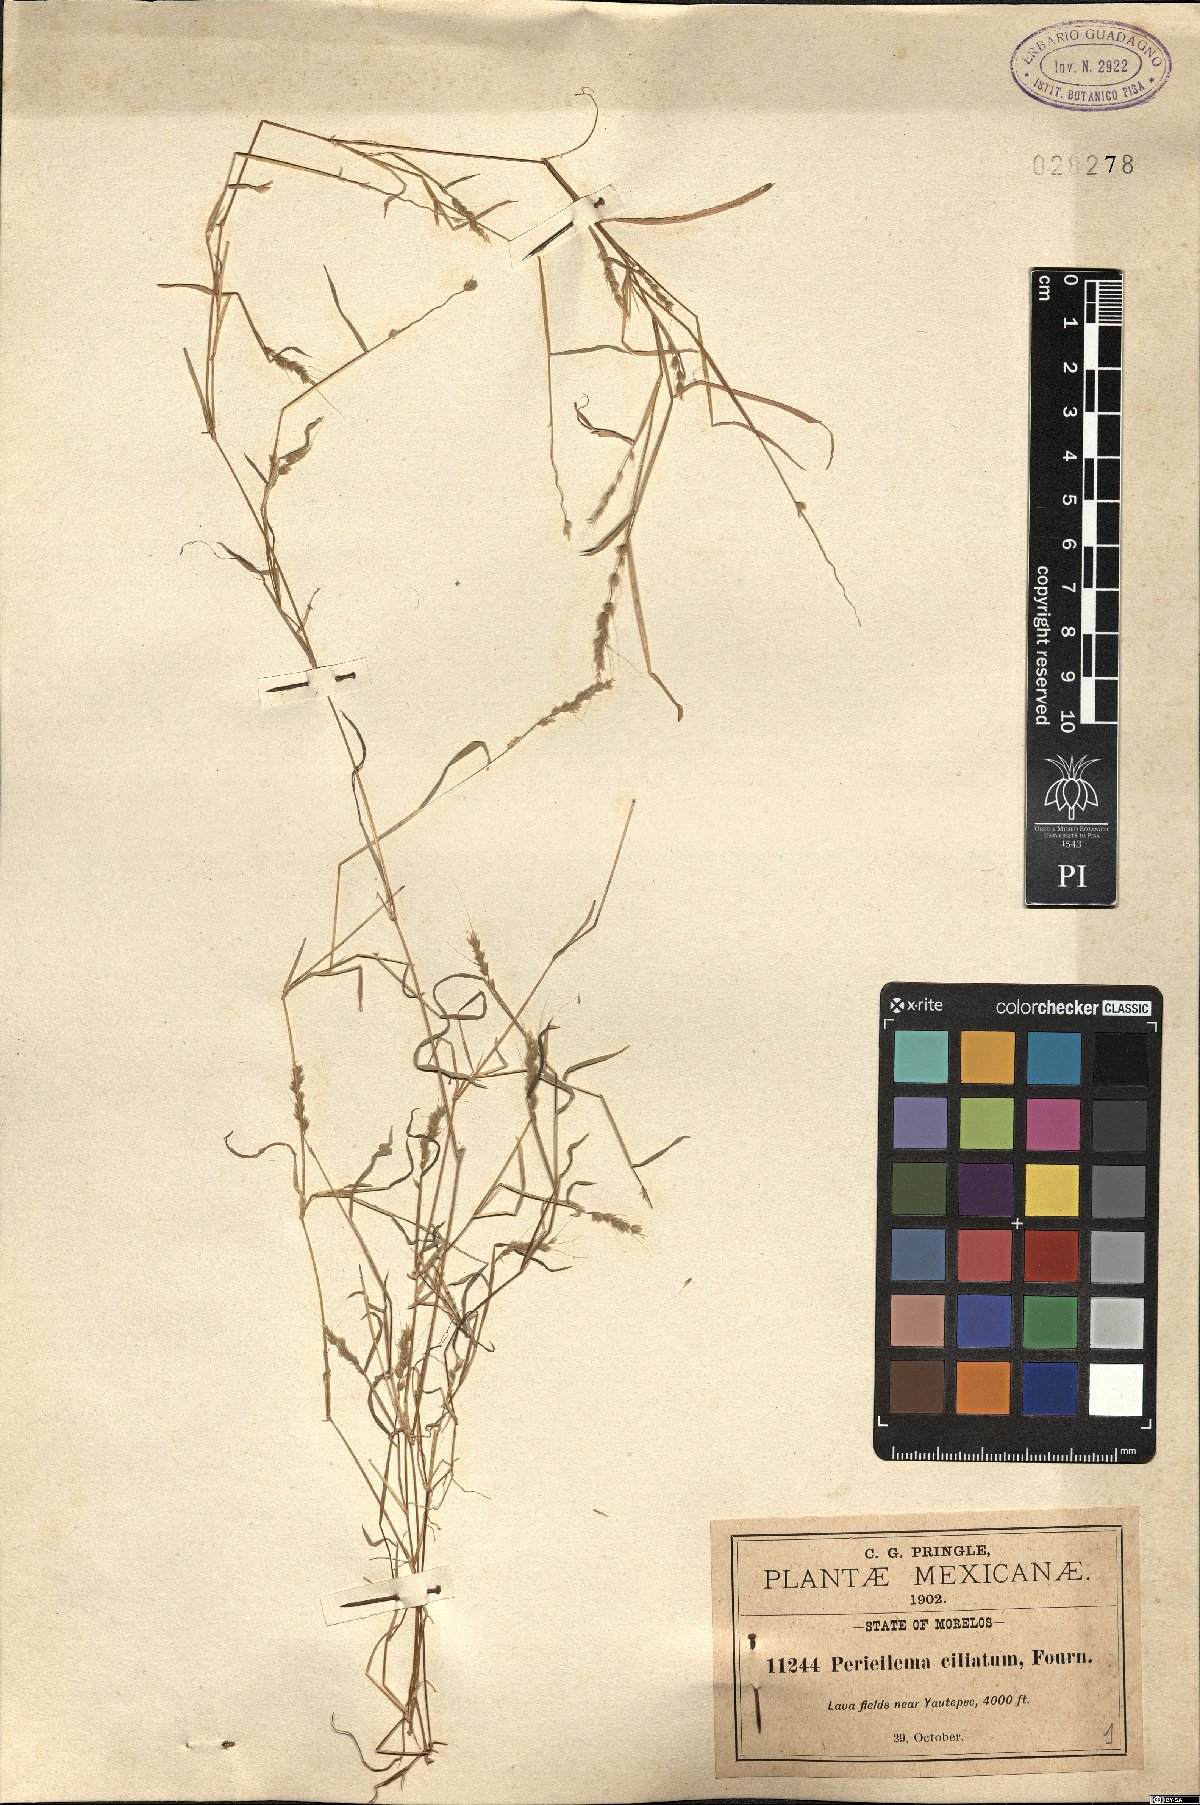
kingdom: Plantae
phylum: Tracheophyta
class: Liliopsida
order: Poales
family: Poaceae
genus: Muhlenbergia
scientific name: Muhlenbergia plumiseta
